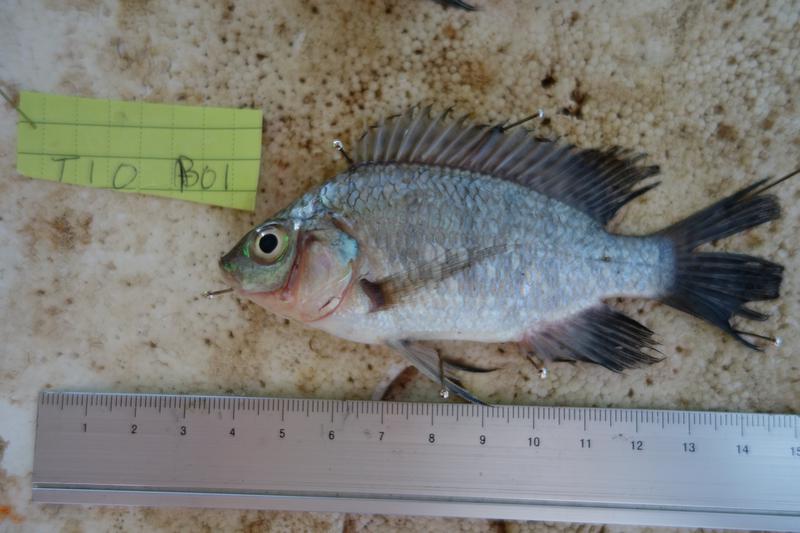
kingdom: Animalia
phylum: Chordata
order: Perciformes
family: Cichlidae
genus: Oreochromis
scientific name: Oreochromis rukwaensis
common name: Lake rukwa tilapia
